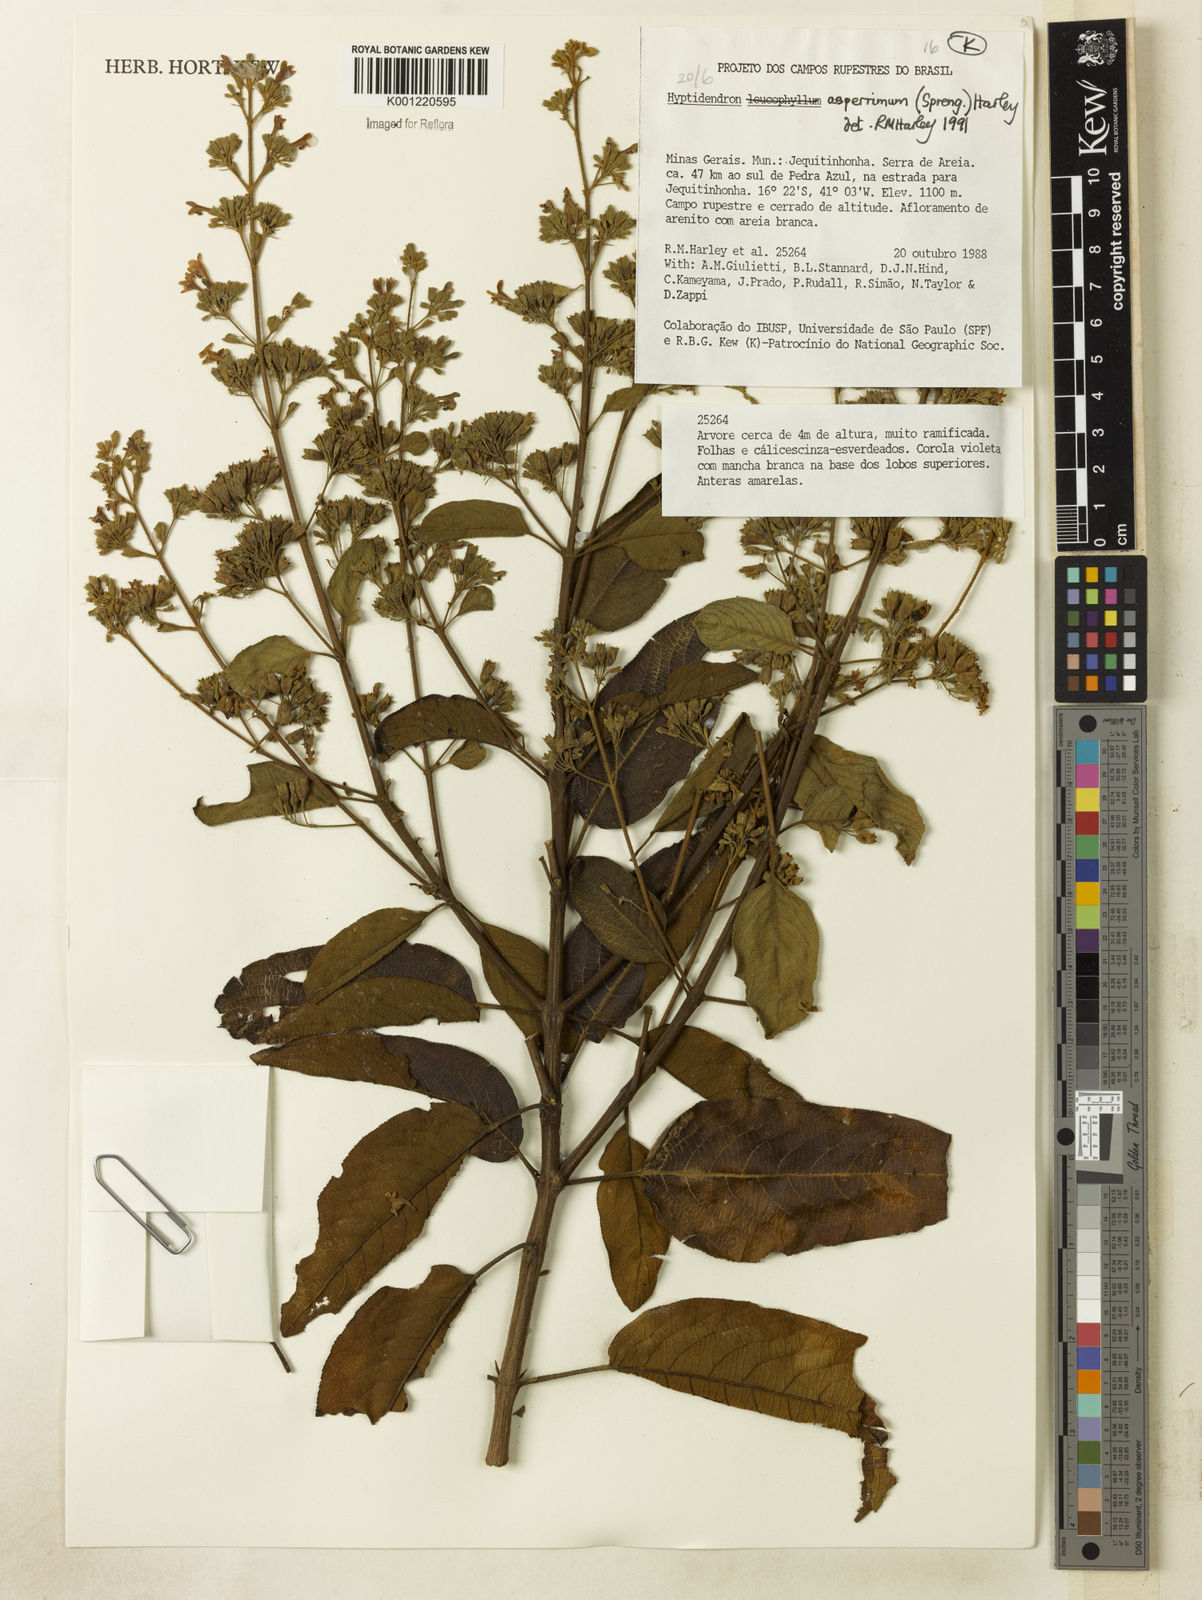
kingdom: Plantae
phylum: Tracheophyta
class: Magnoliopsida
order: Lamiales
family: Lamiaceae
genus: Hyptidendron
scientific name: Hyptidendron asperrimum
